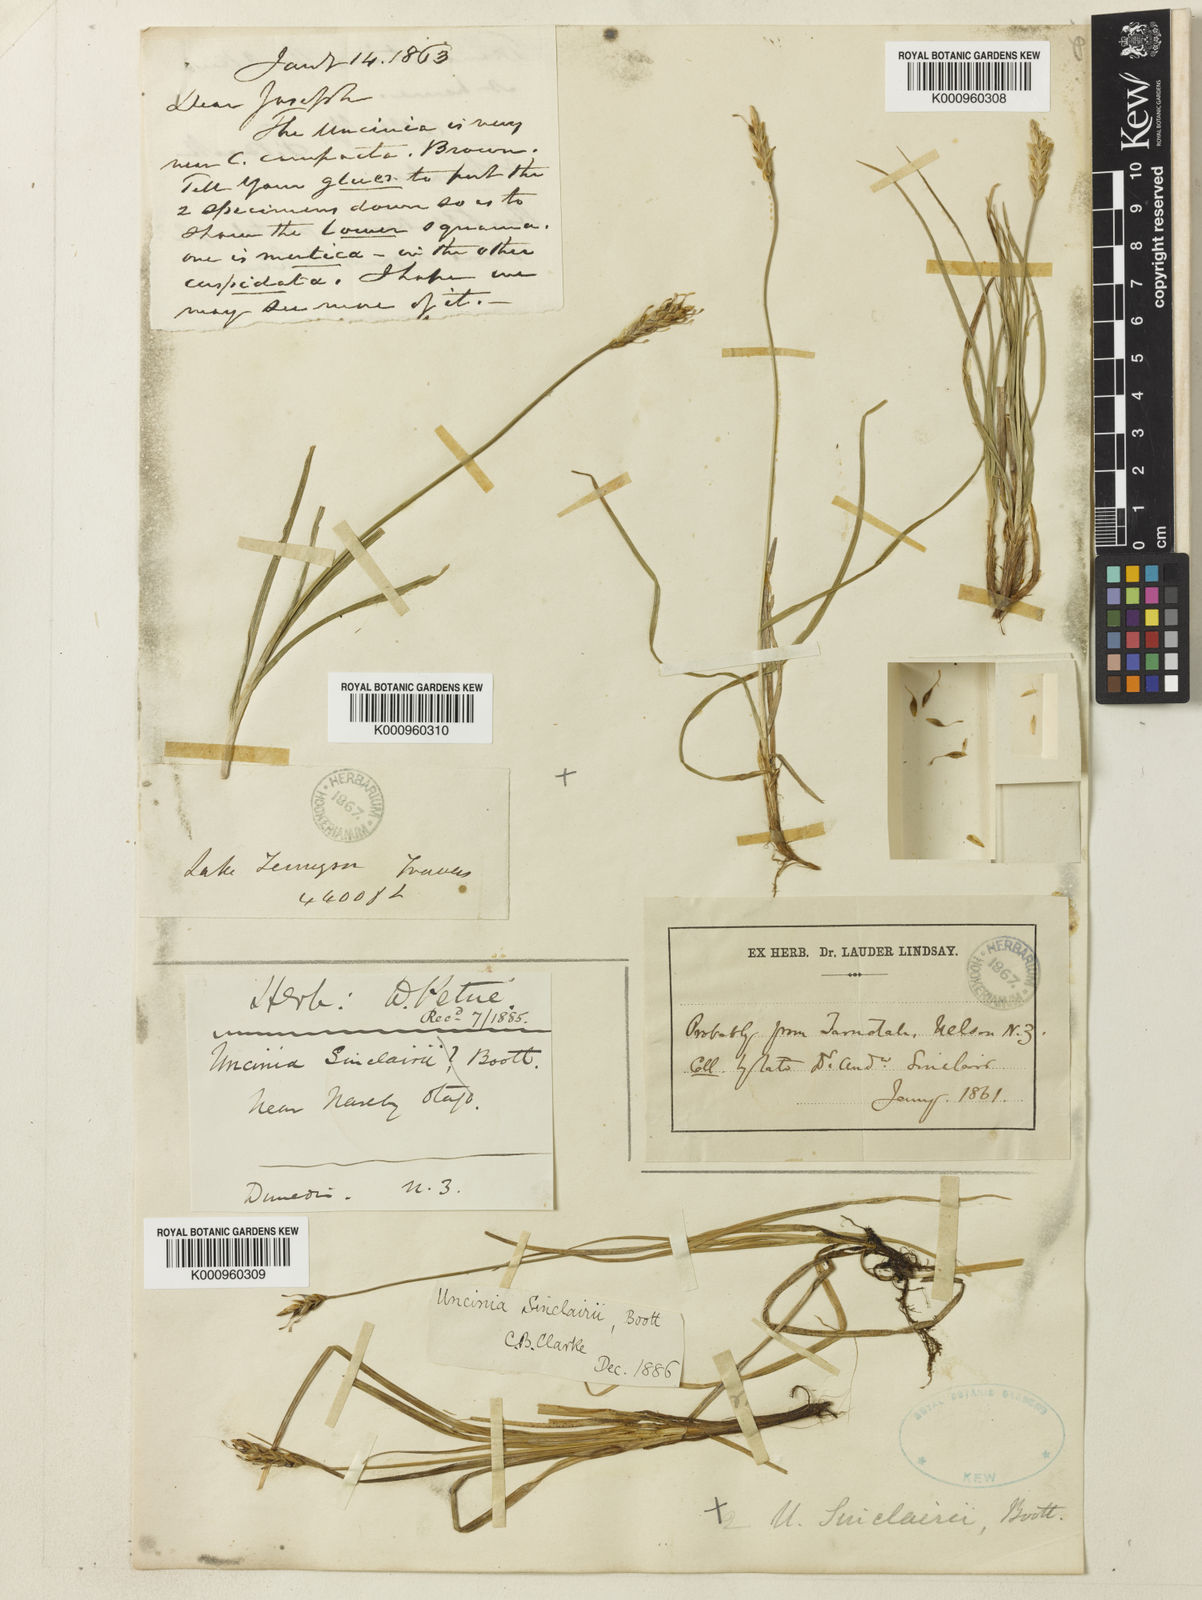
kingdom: Plantae
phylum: Tracheophyta
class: Liliopsida
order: Poales
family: Cyperaceae
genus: Carex
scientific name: Carex parvispica
